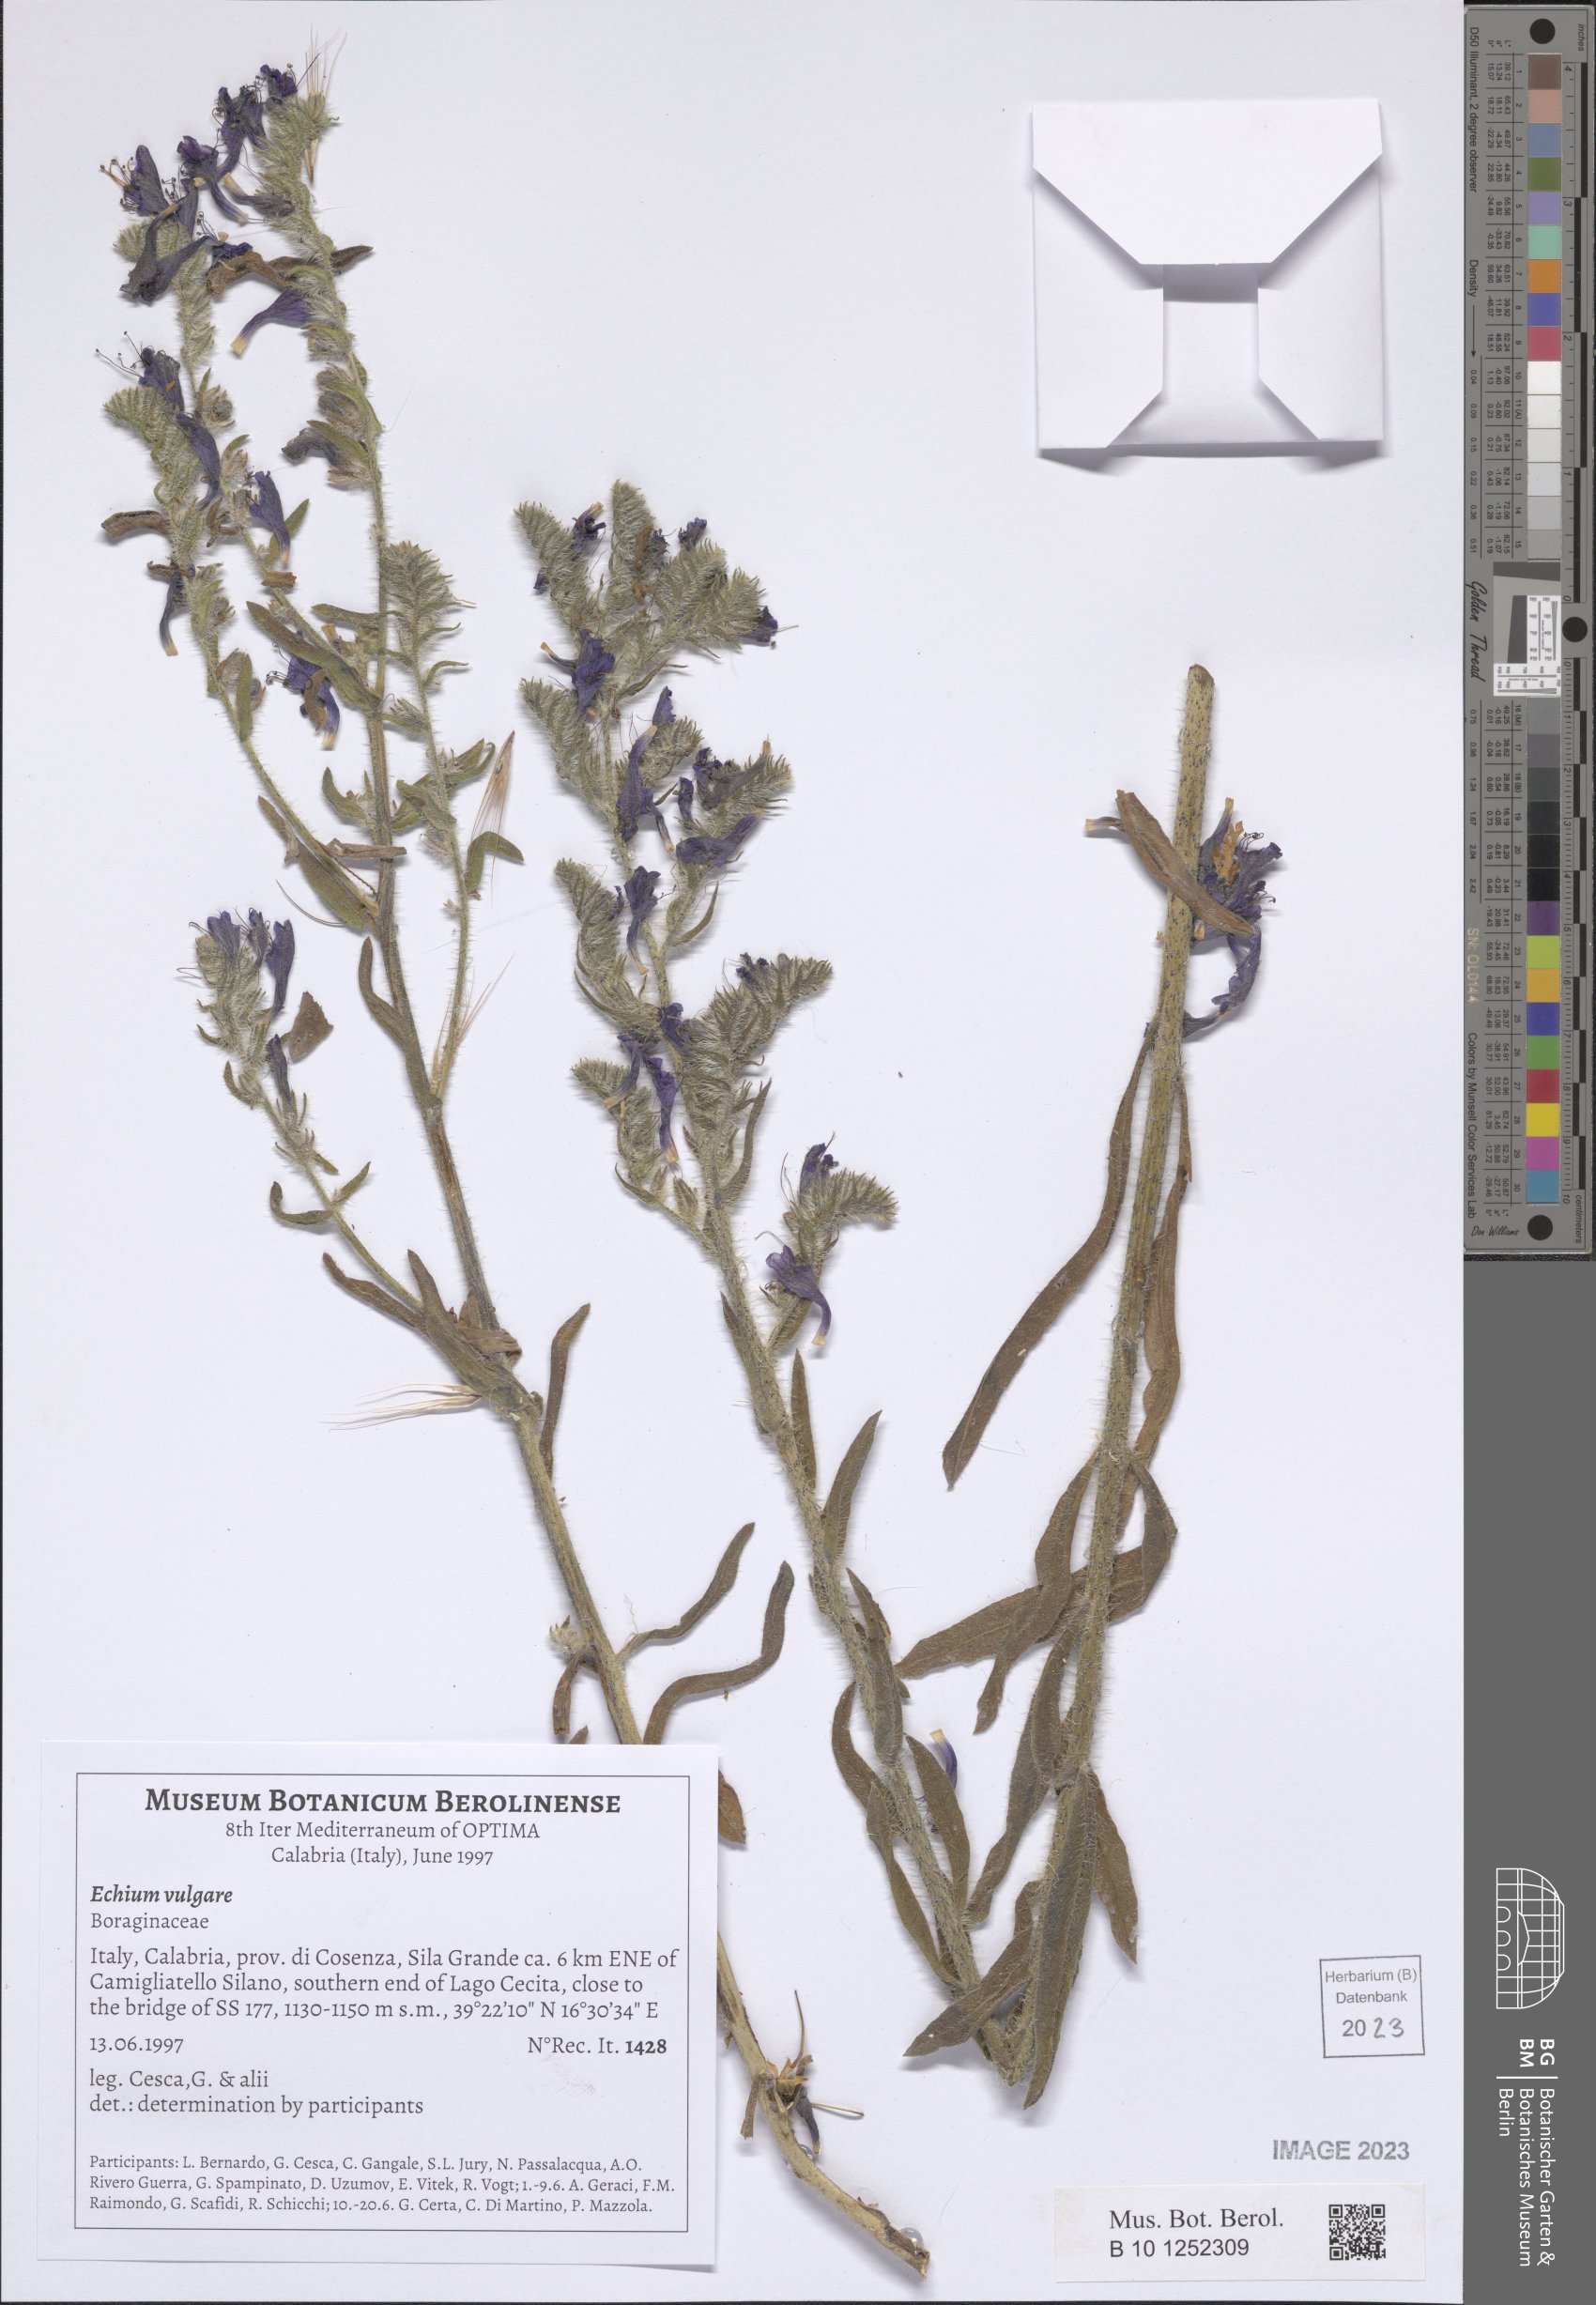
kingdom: Plantae
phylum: Tracheophyta
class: Magnoliopsida
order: Boraginales
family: Boraginaceae
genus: Echium
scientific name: Echium vulgare
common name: Common viper's bugloss
